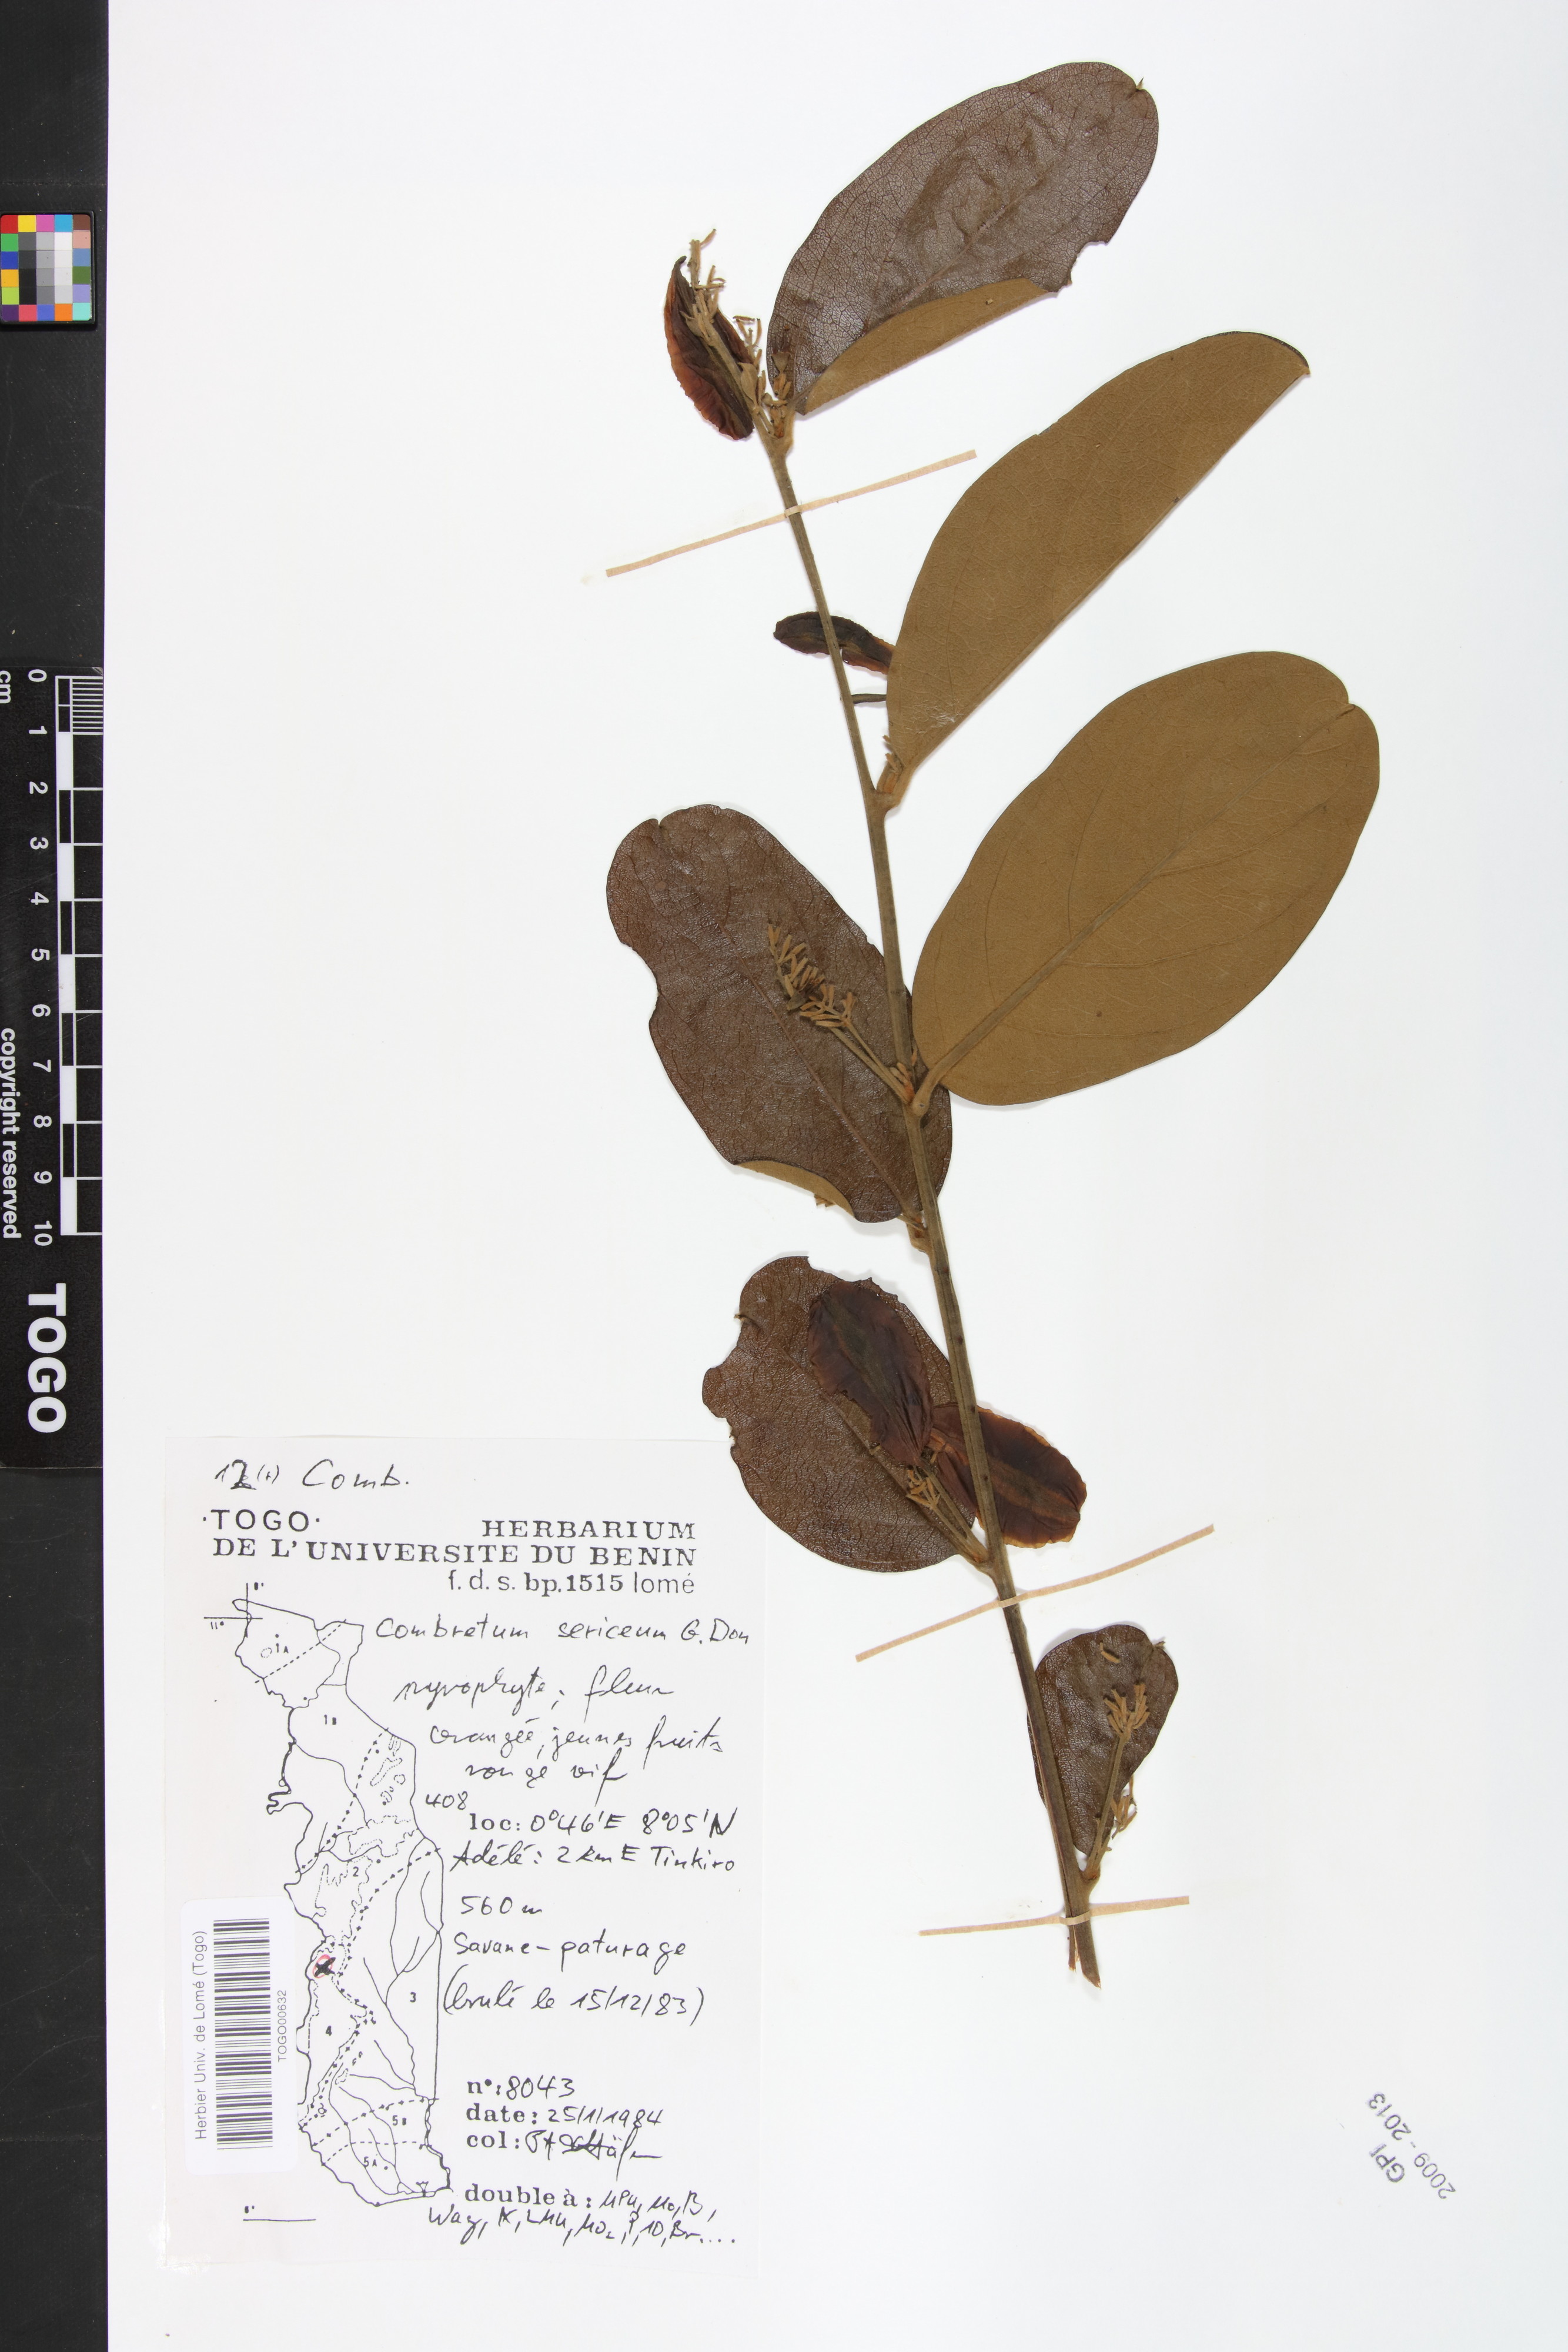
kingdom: Plantae
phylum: Tracheophyta
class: Magnoliopsida
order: Myrtales
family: Combretaceae
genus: Combretum
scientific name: Combretum sericeum
